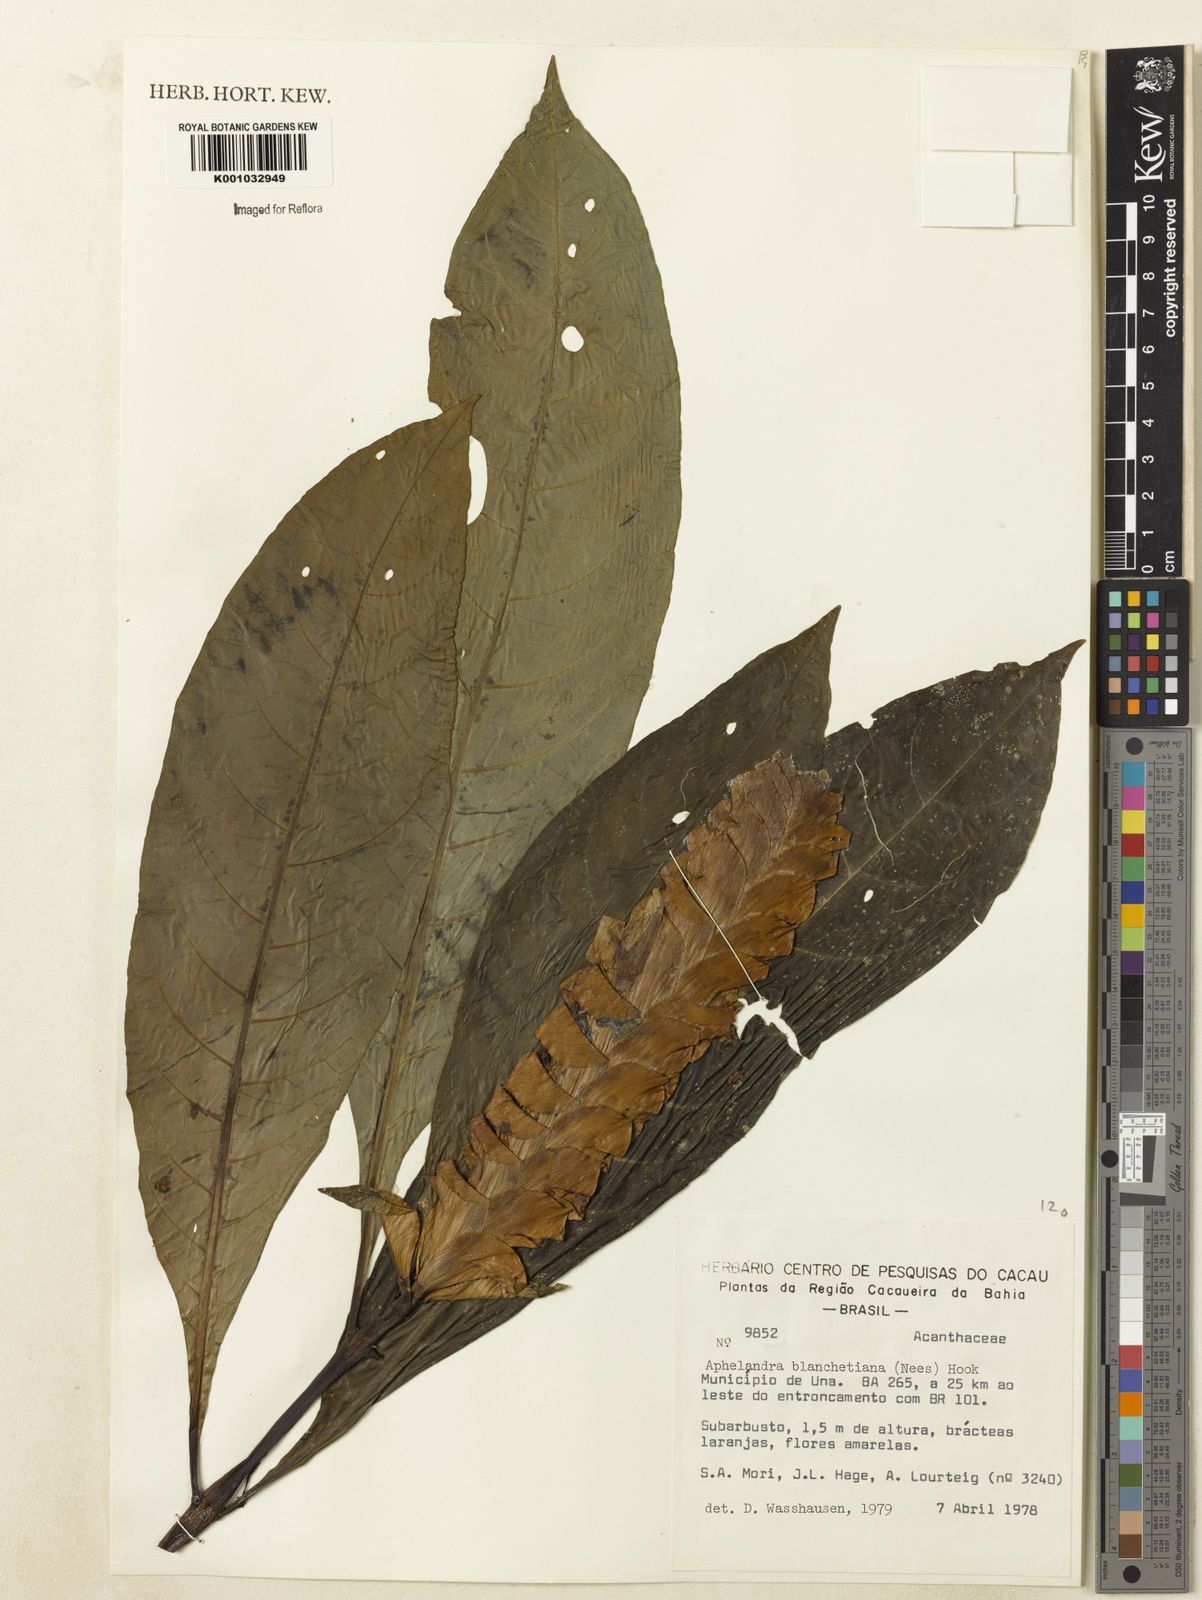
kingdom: Plantae
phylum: Tracheophyta
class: Magnoliopsida
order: Lamiales
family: Acanthaceae
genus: Aphelandra
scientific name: Aphelandra blanchetiana
